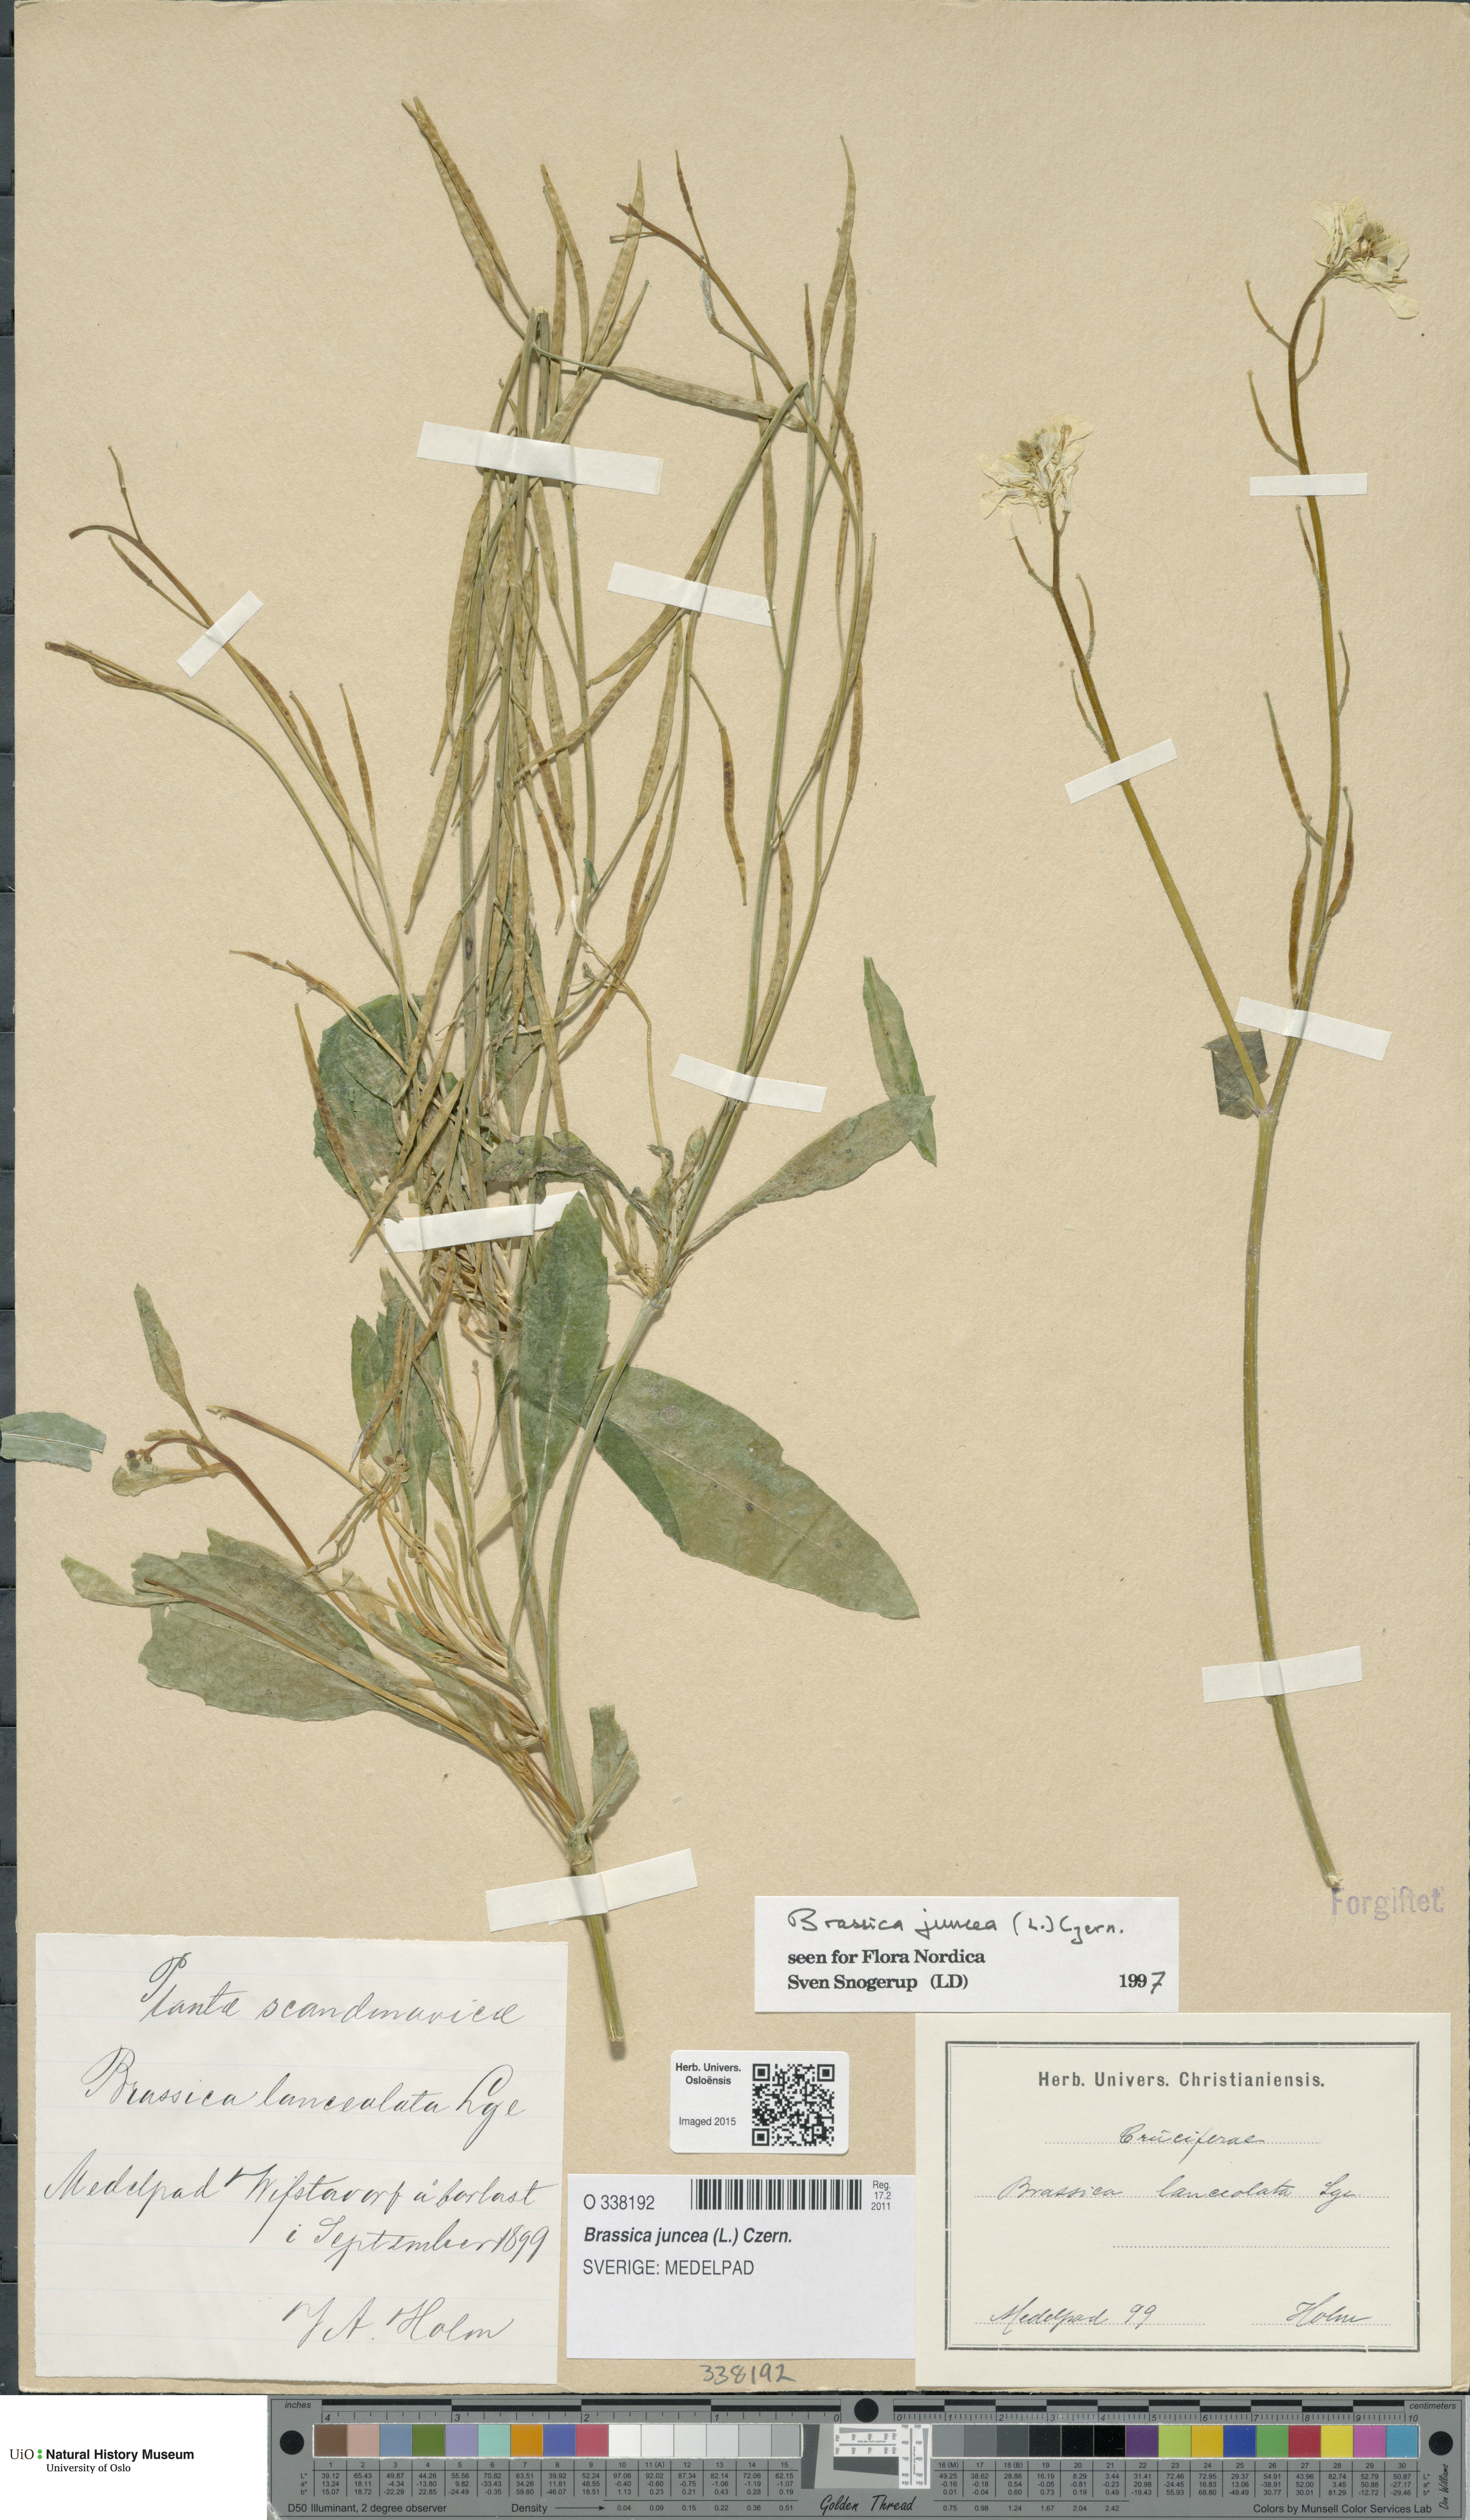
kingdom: Plantae
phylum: Tracheophyta
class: Magnoliopsida
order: Brassicales
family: Brassicaceae
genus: Brassica
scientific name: Brassica juncea
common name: Brown mustard
